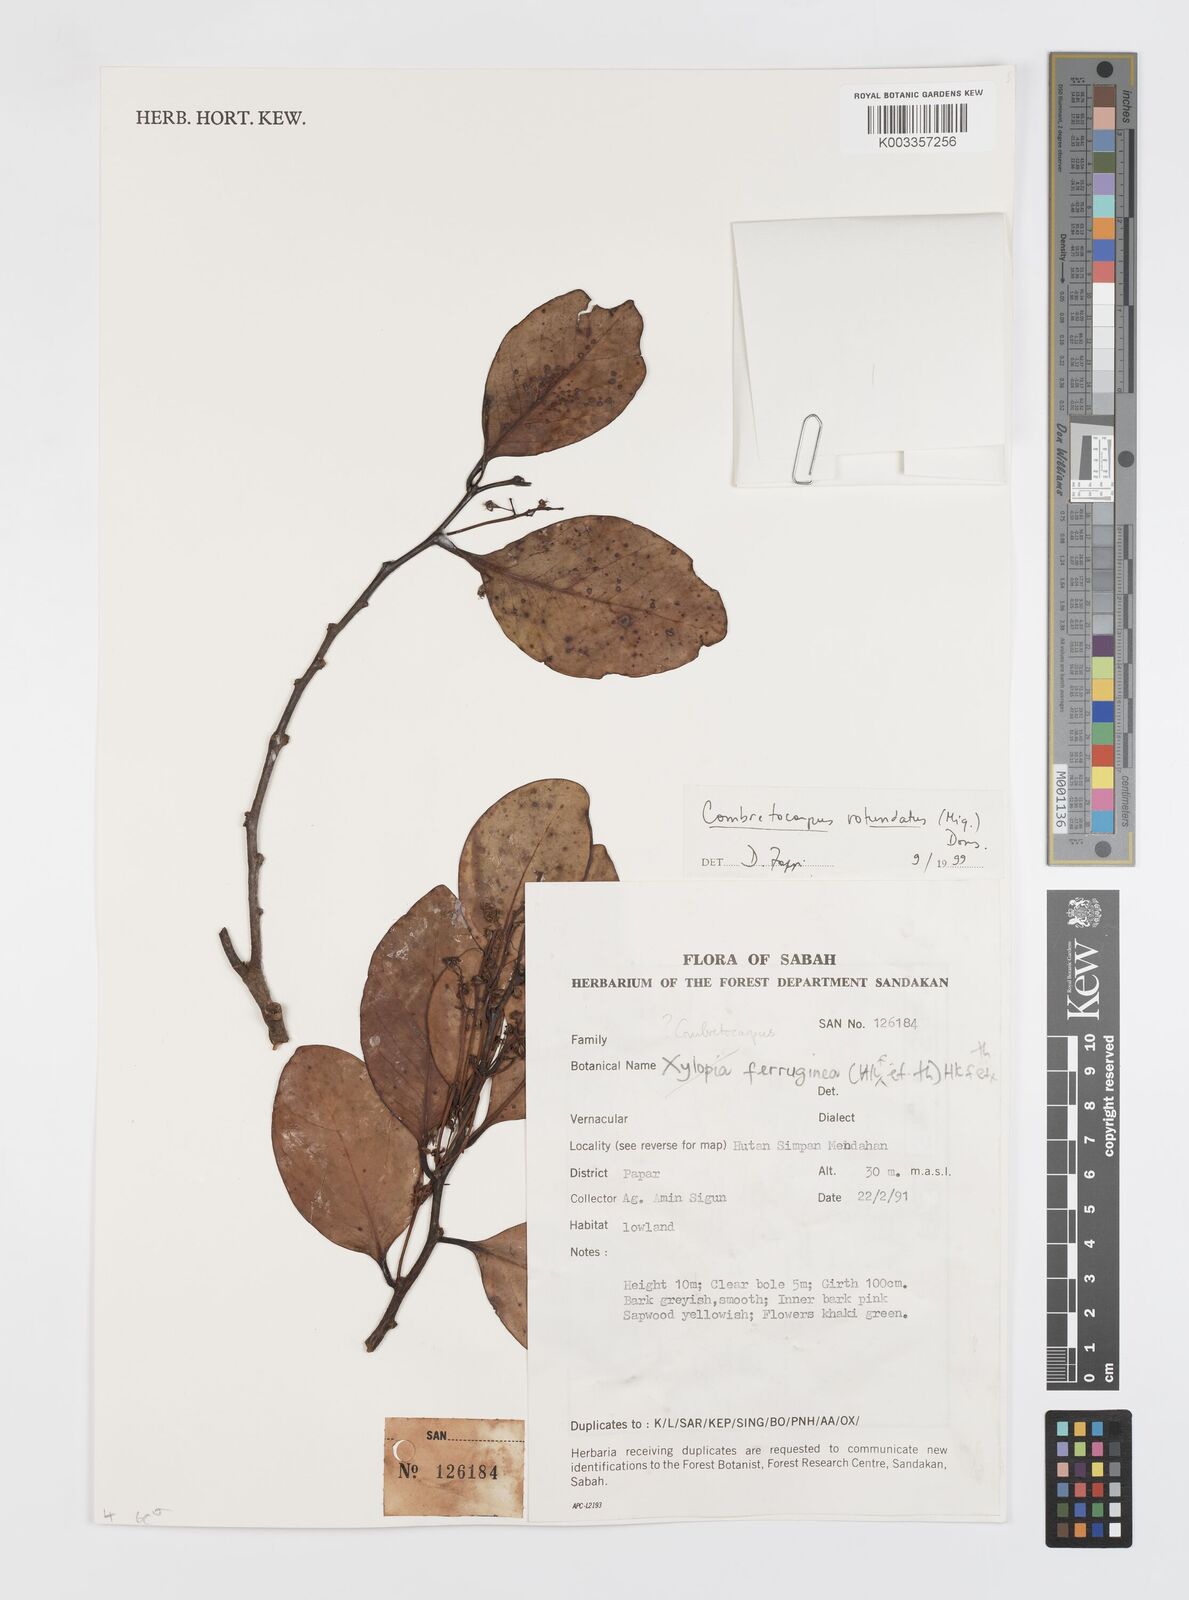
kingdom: Plantae
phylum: Tracheophyta
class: Magnoliopsida
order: Cucurbitales
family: Anisophylleaceae
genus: Combretocarpus
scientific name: Combretocarpus rotundatus
